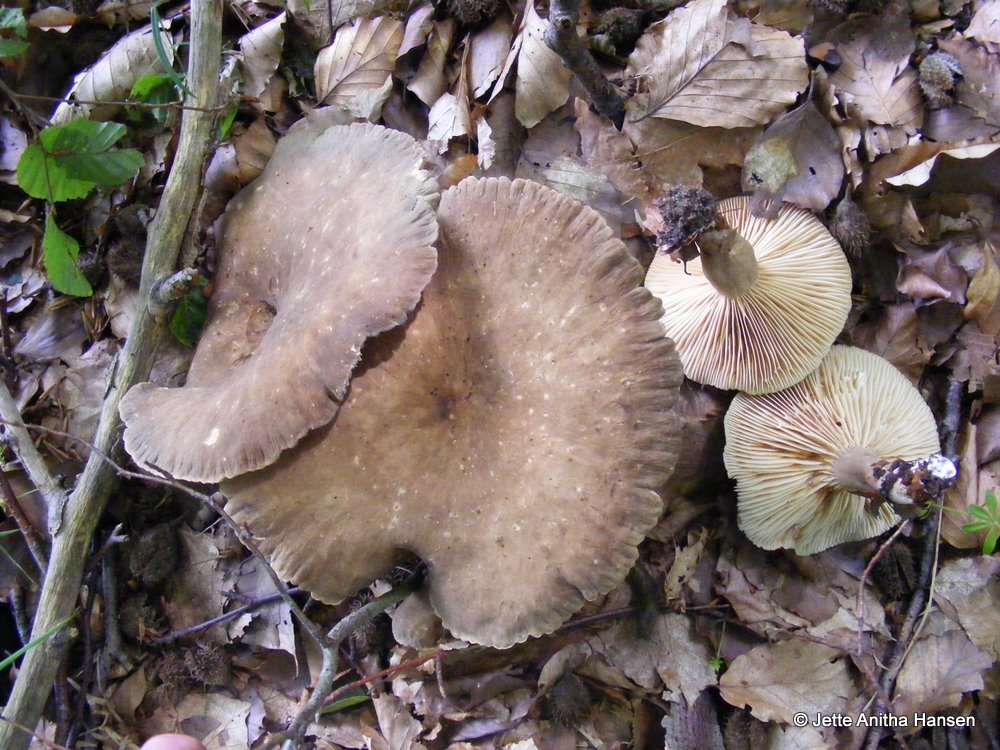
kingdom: Fungi
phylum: Basidiomycota
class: Agaricomycetes
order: Russulales
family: Russulaceae
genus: Lactarius
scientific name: Lactarius romagnesii
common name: fjernbladet mælkehat
